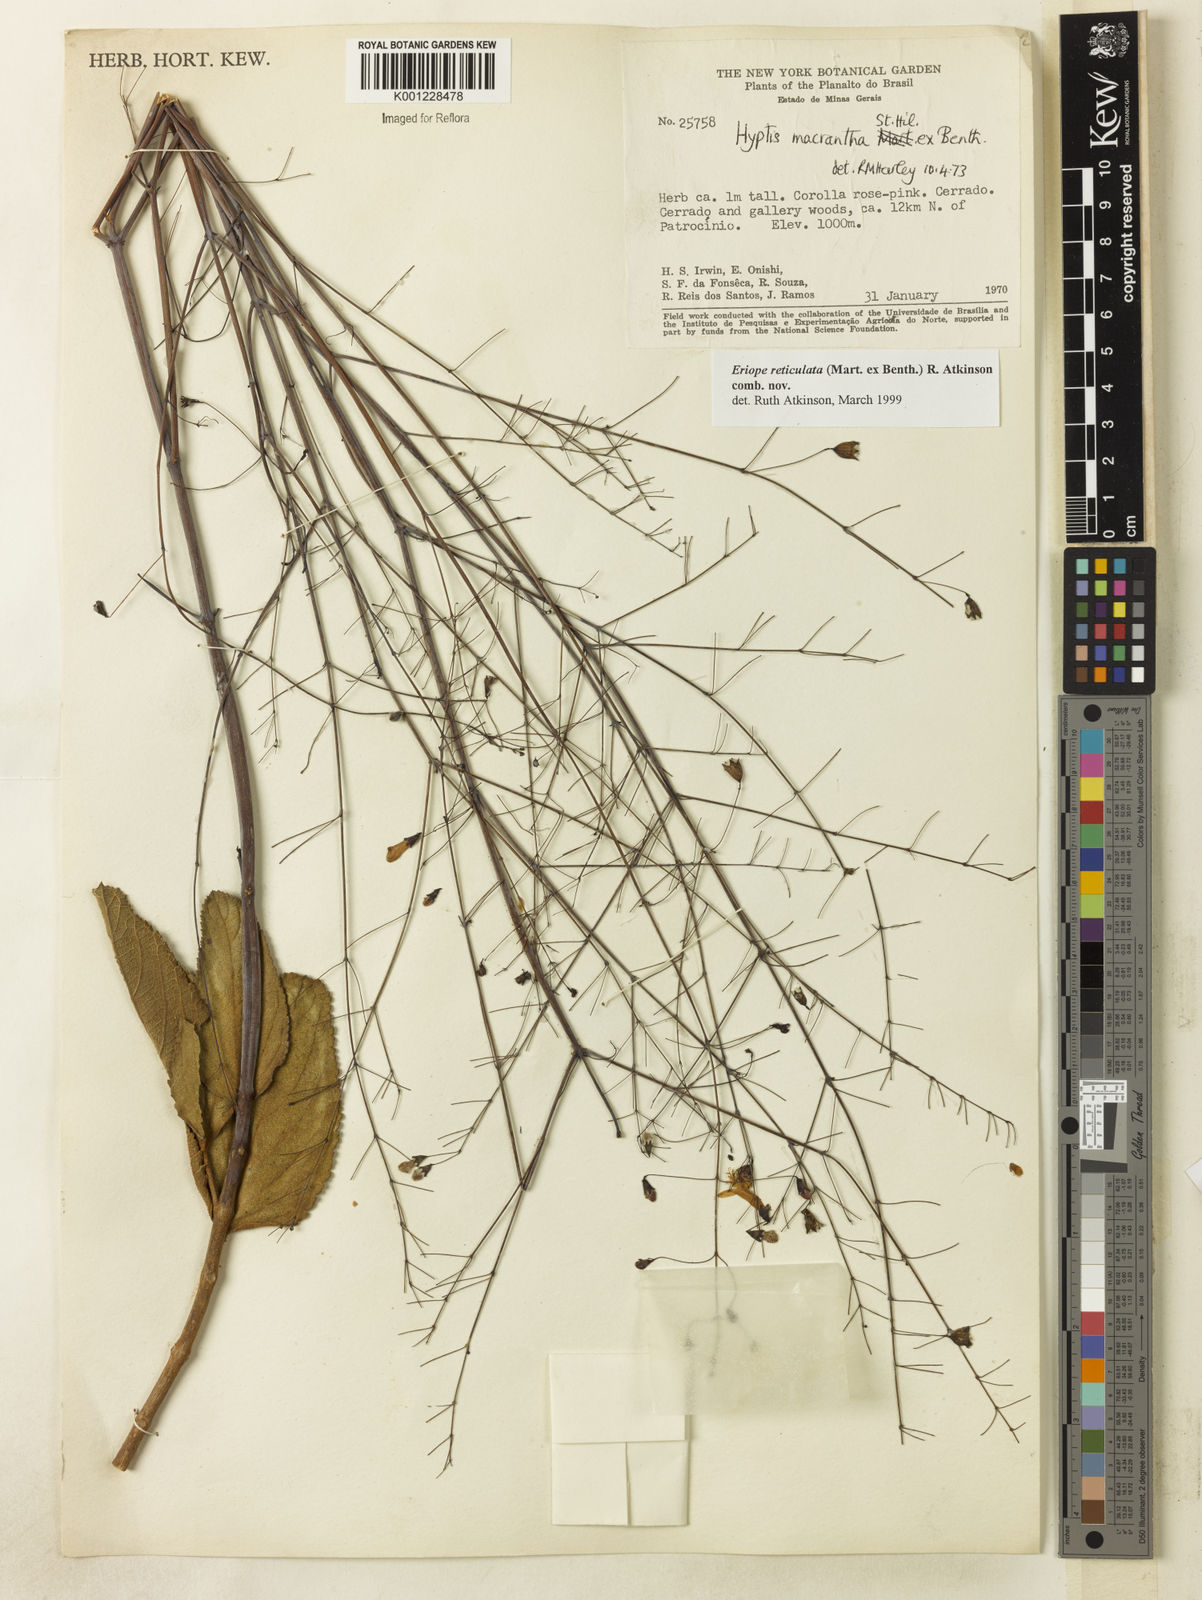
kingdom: Plantae
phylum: Tracheophyta
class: Magnoliopsida
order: Lamiales
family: Lamiaceae
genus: Hypenia
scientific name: Hypenia reticulata
